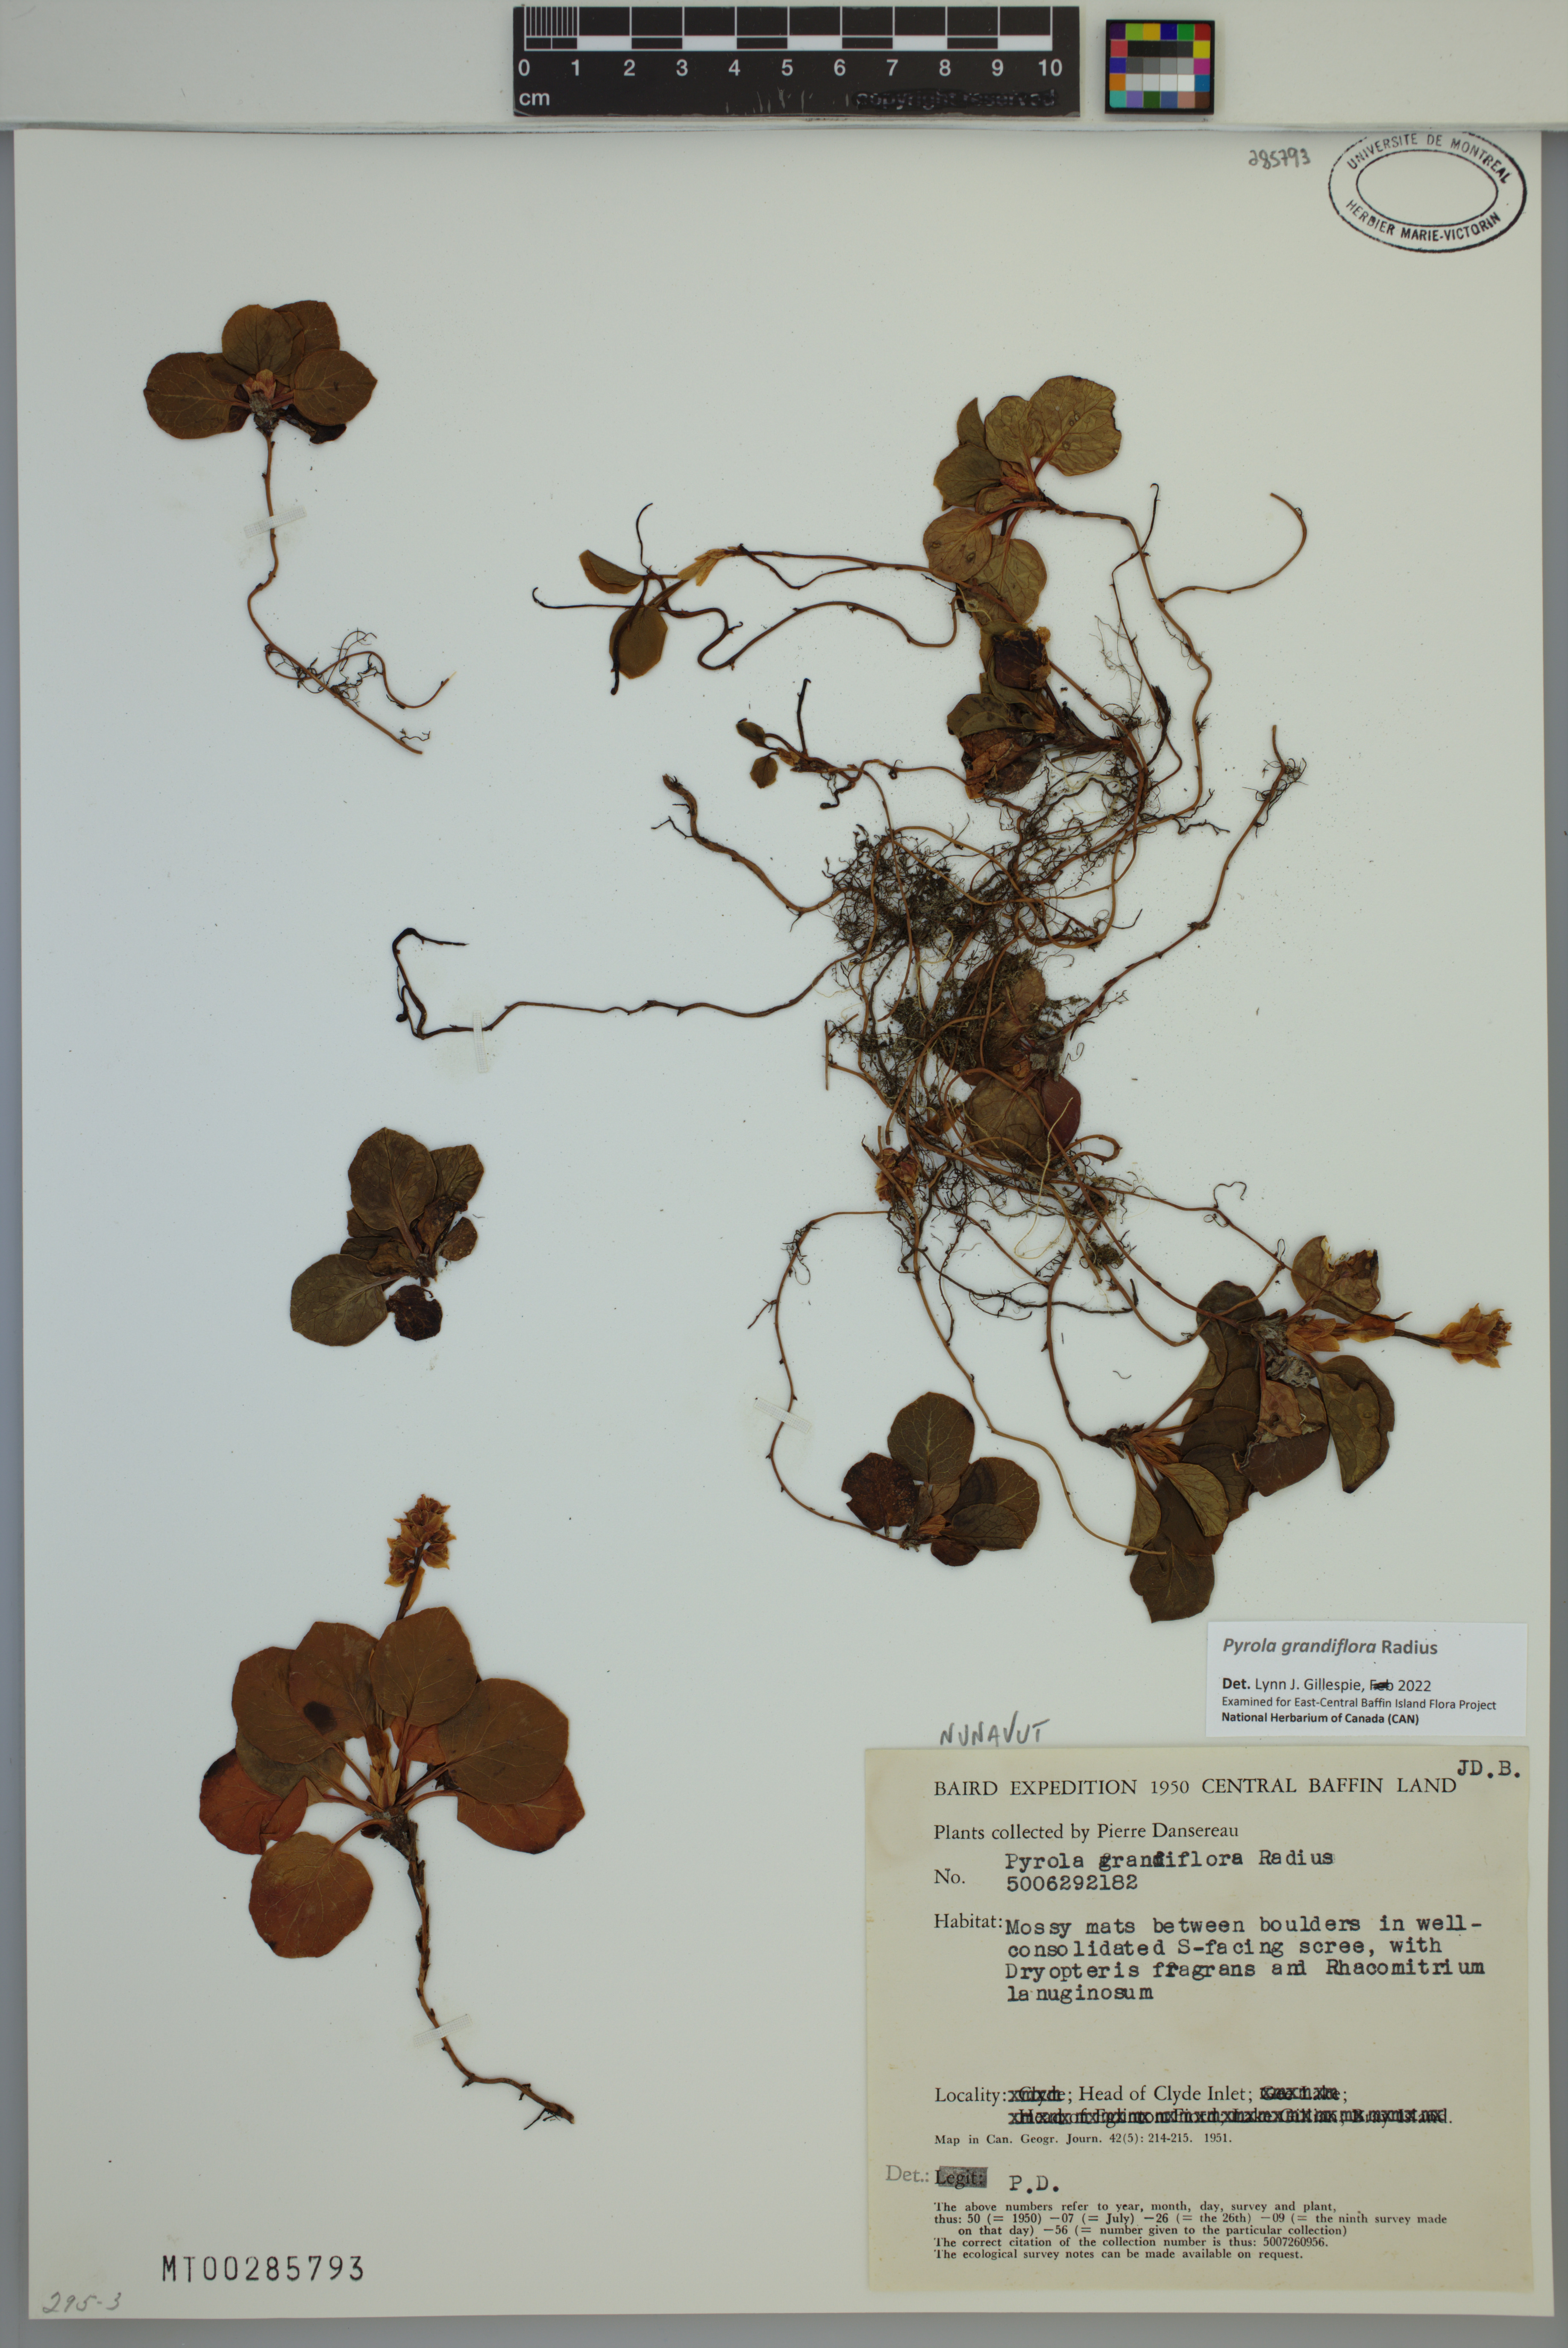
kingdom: Plantae
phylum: Tracheophyta
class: Magnoliopsida
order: Ericales
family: Ericaceae
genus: Pyrola
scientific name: Pyrola grandiflora
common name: Arctic pyrola
